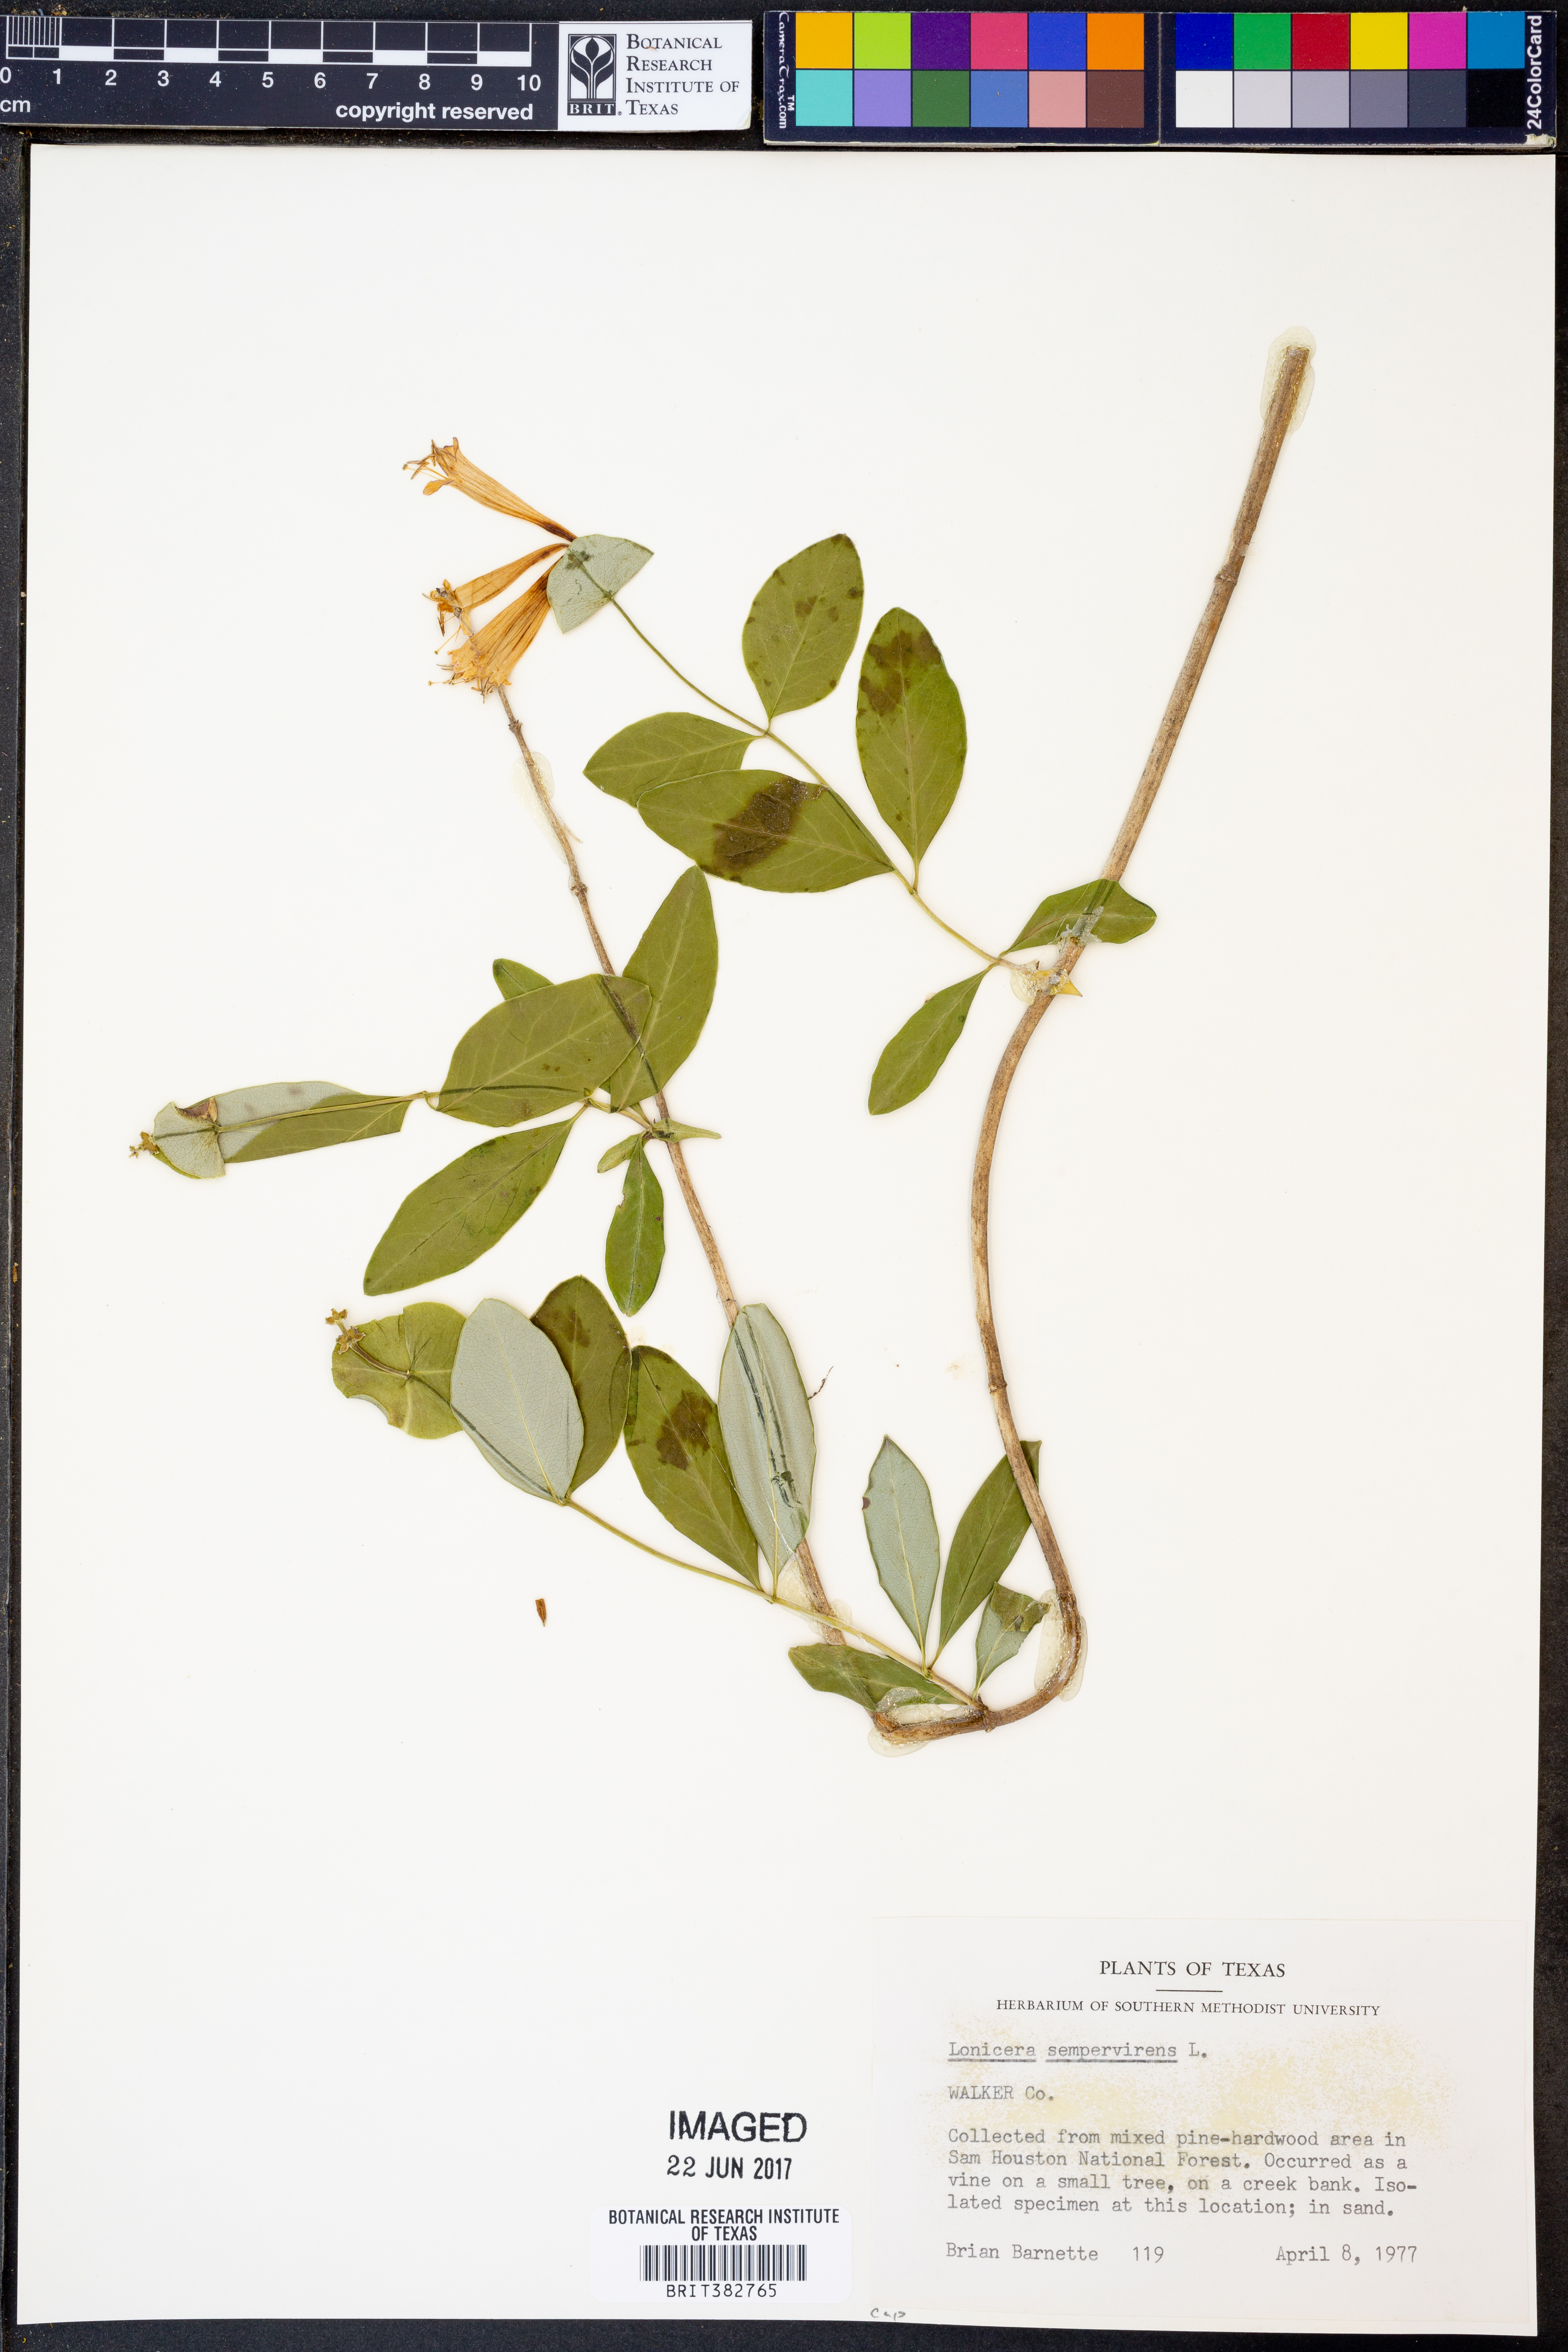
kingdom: Plantae
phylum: Tracheophyta
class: Magnoliopsida
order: Dipsacales
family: Caprifoliaceae
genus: Lonicera
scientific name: Lonicera sempervirens
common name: Coral honeysuckle
